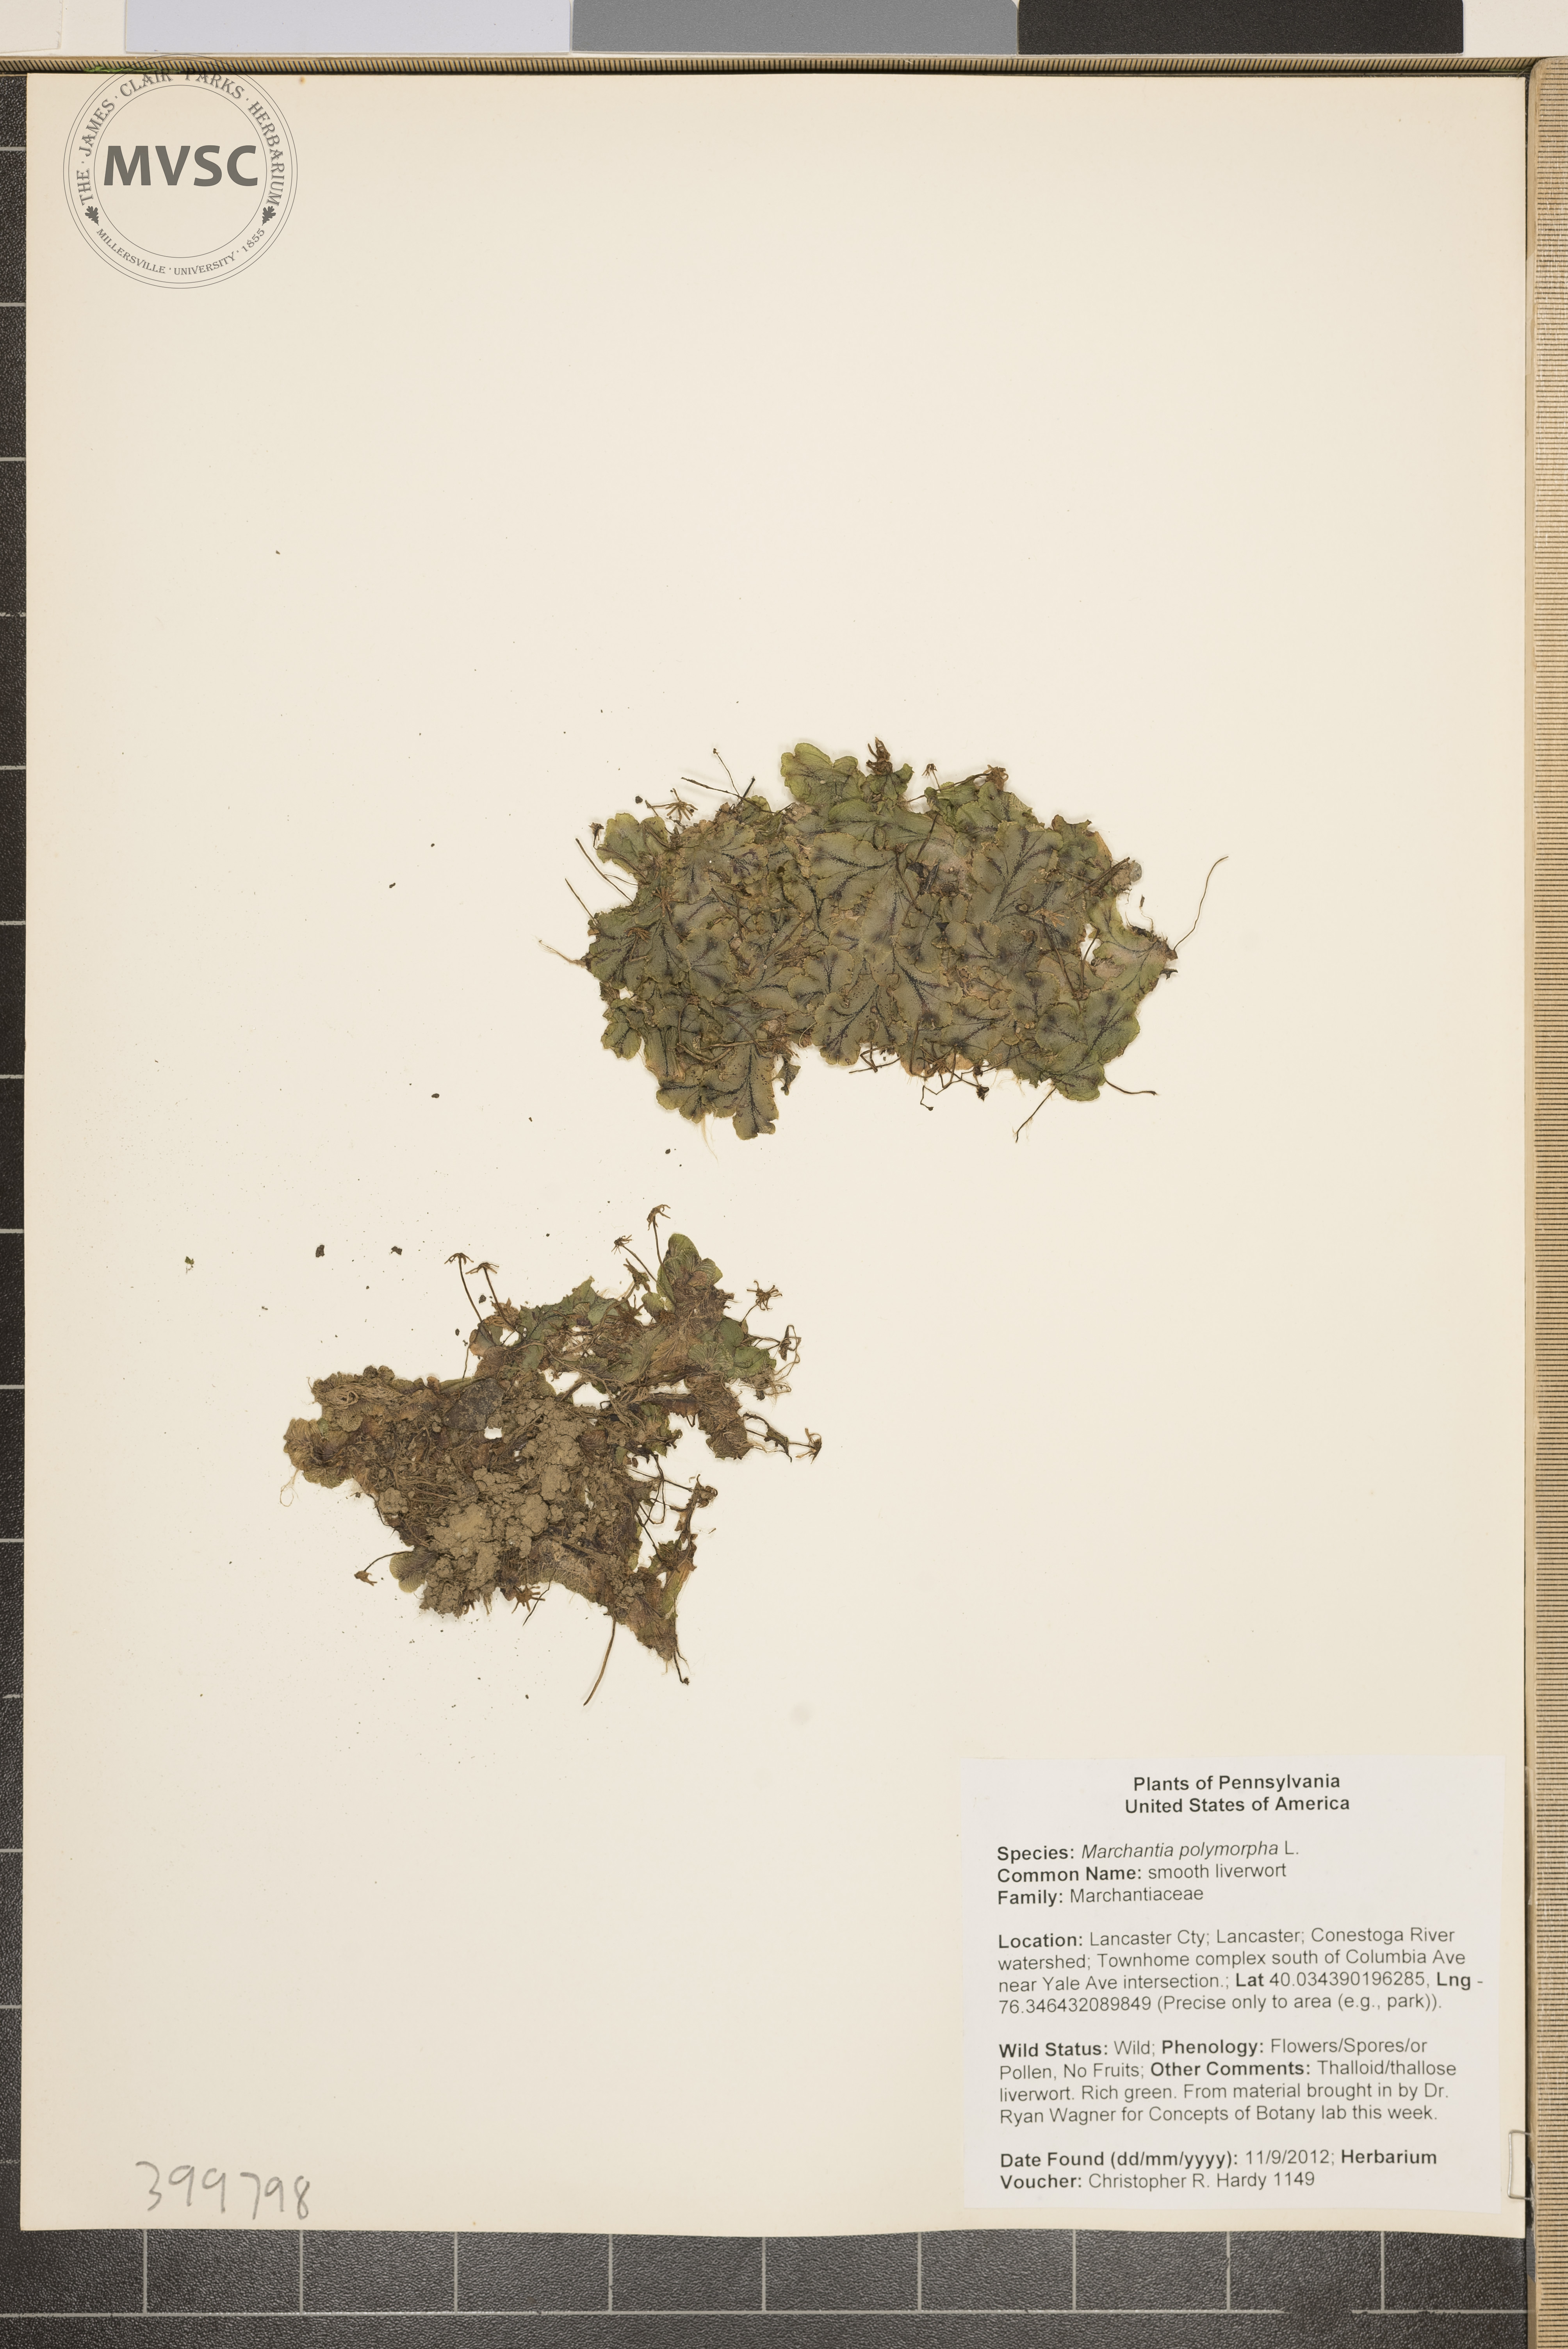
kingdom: Plantae
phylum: Marchantiophyta
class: Marchantiopsida
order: Marchantiales
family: Marchantiaceae
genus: Marchantia
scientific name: Marchantia polymorpha
